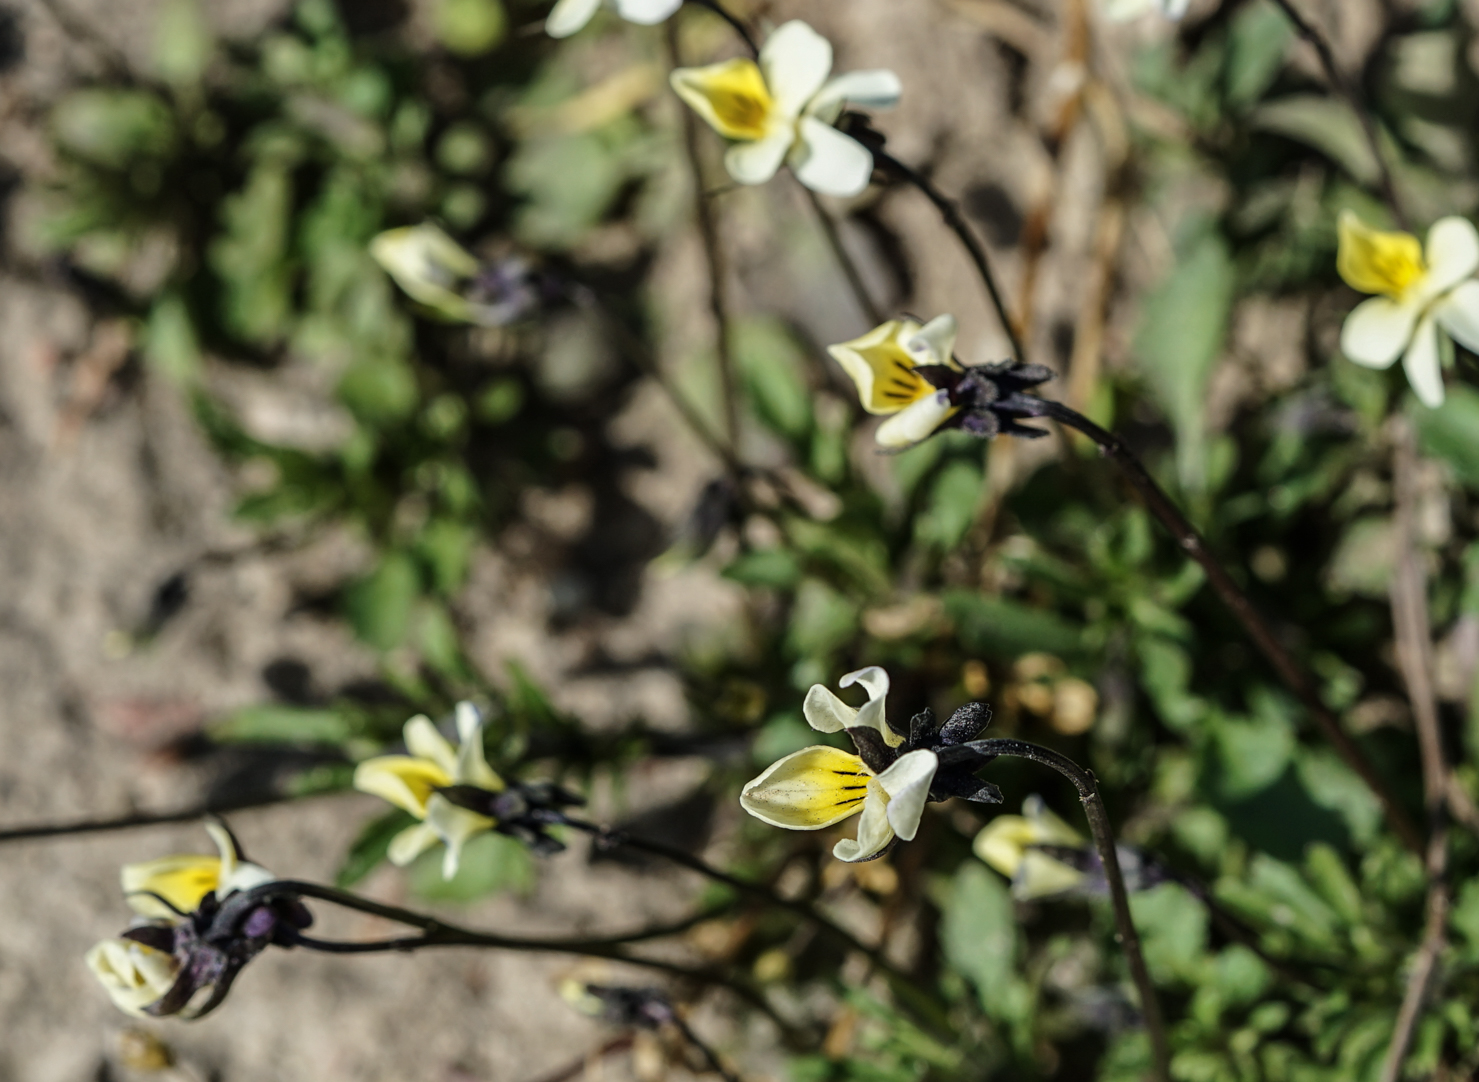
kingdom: Plantae
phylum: Tracheophyta
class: Magnoliopsida
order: Malpighiales
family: Violaceae
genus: Viola
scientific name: Viola arvensis
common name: Field pansy
